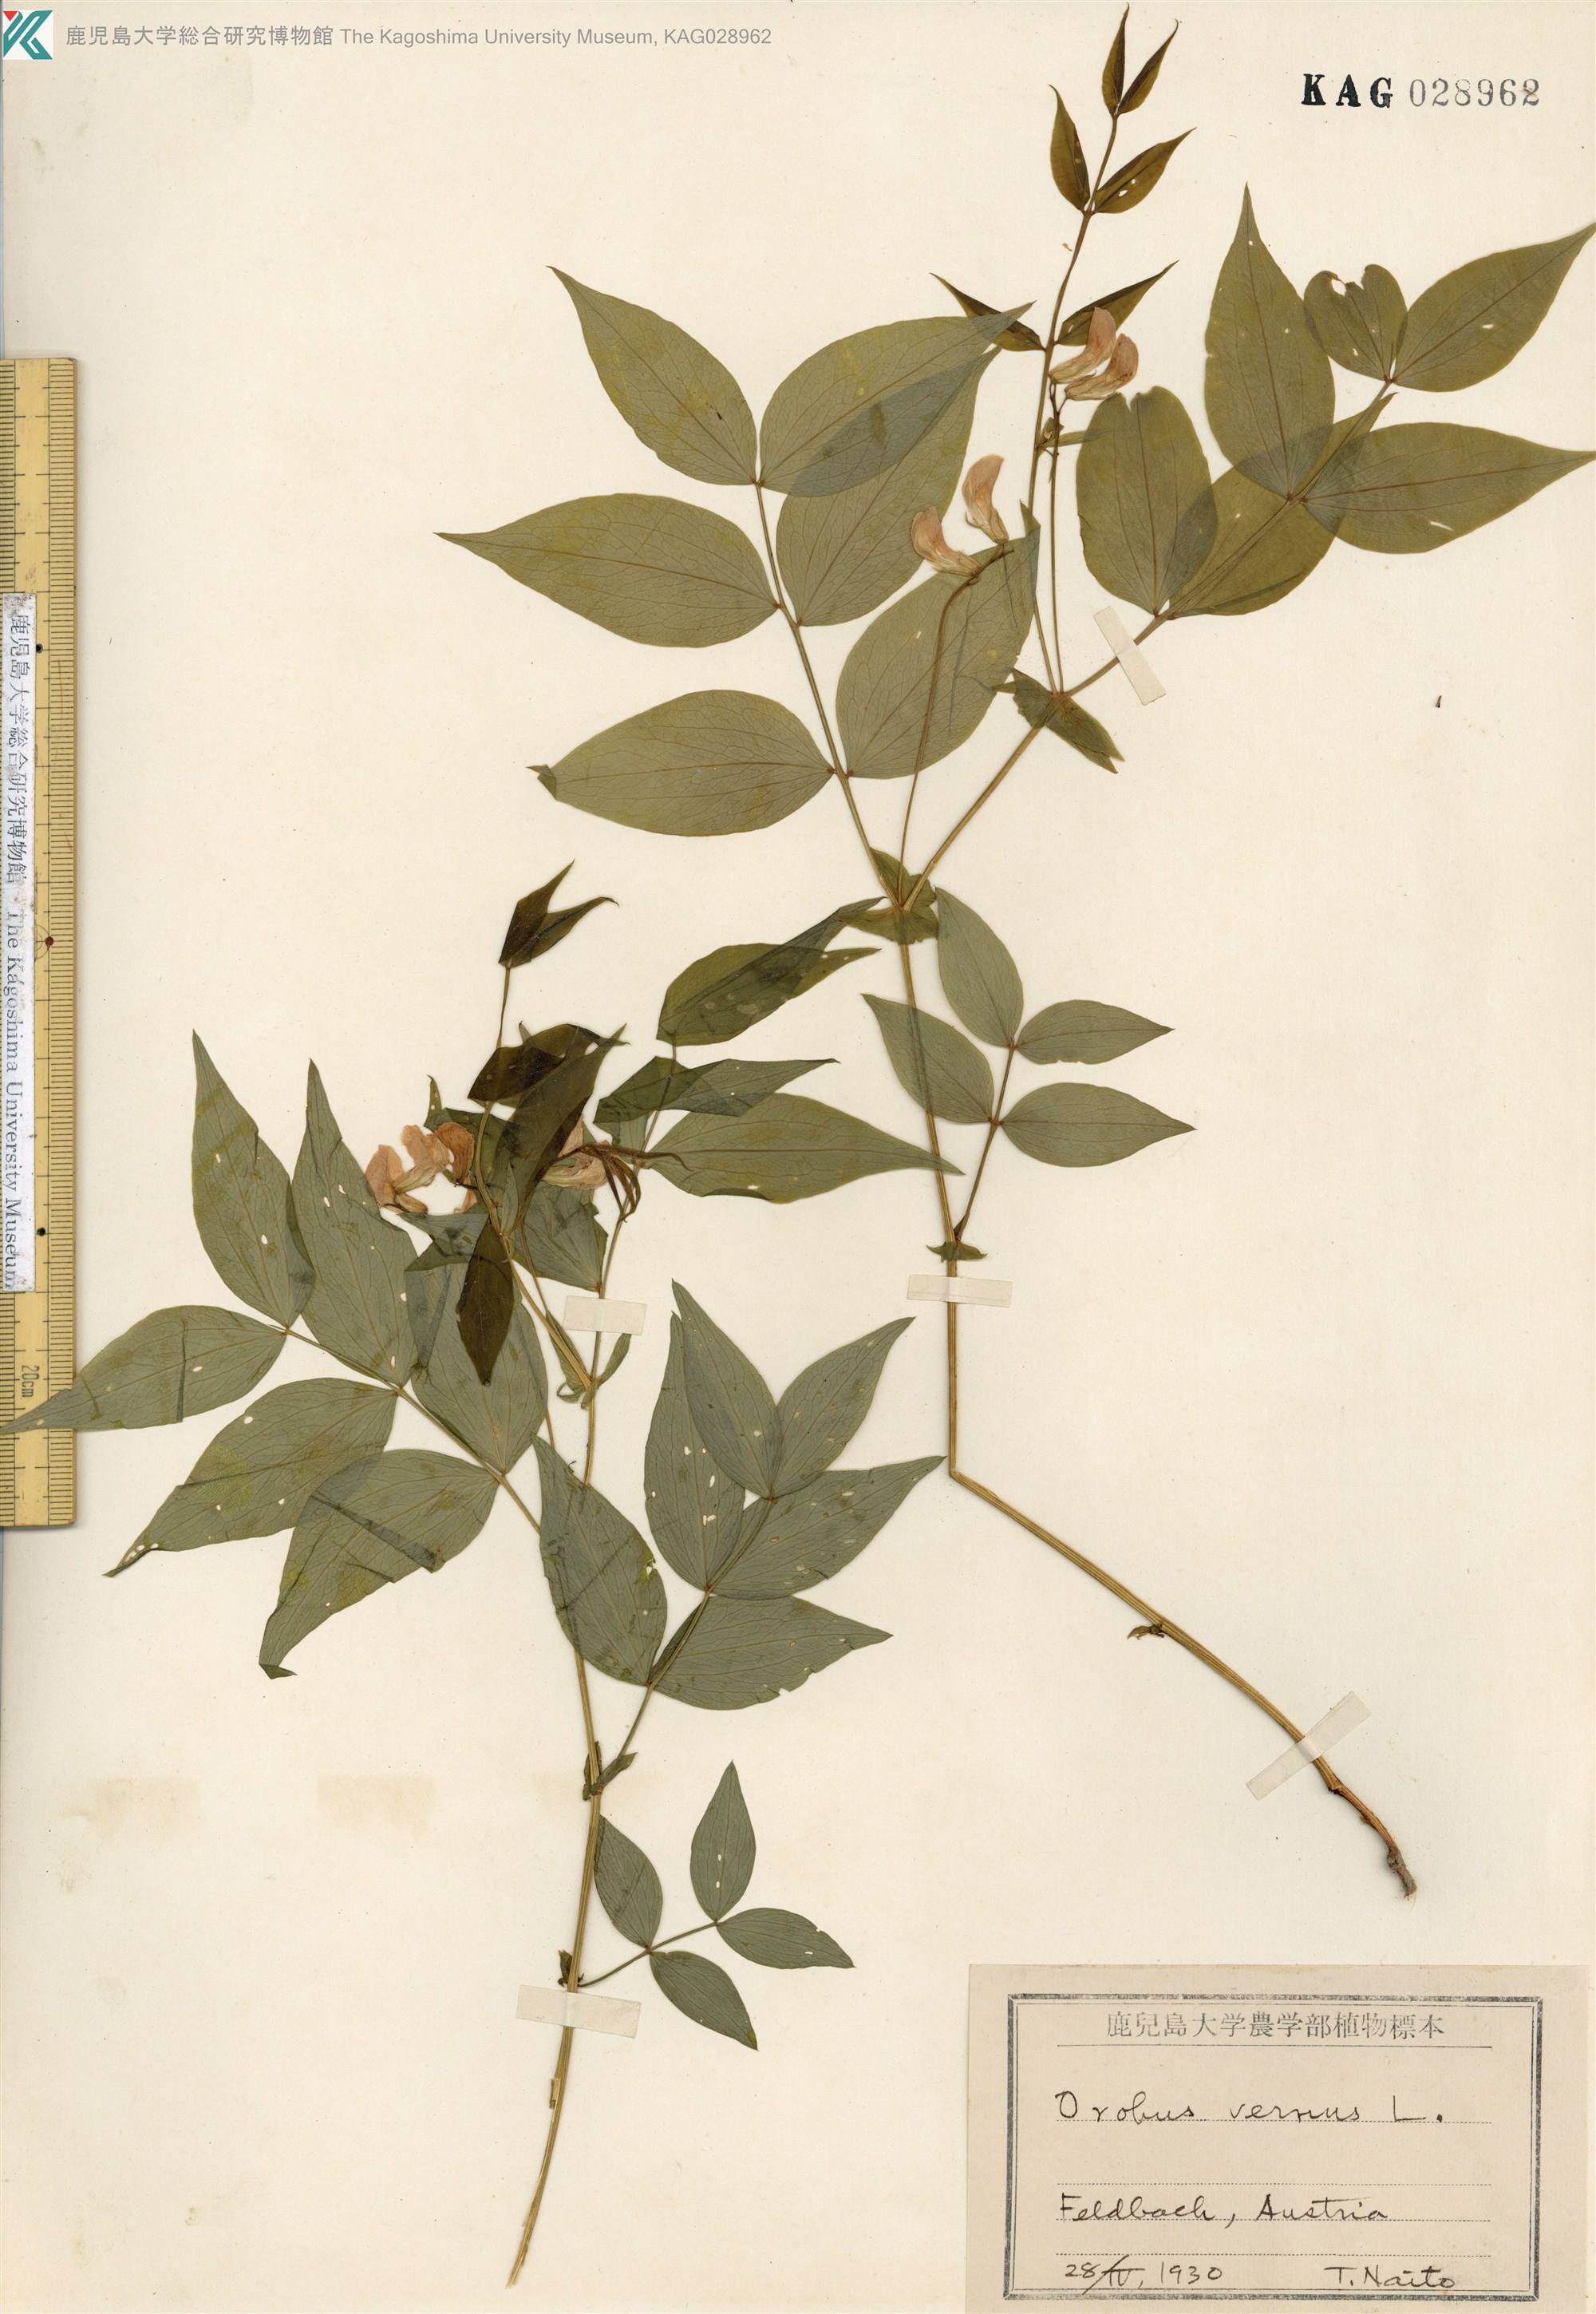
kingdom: Plantae
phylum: Tracheophyta
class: Magnoliopsida
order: Fabales
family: Fabaceae
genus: Lathyrus
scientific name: Lathyrus
